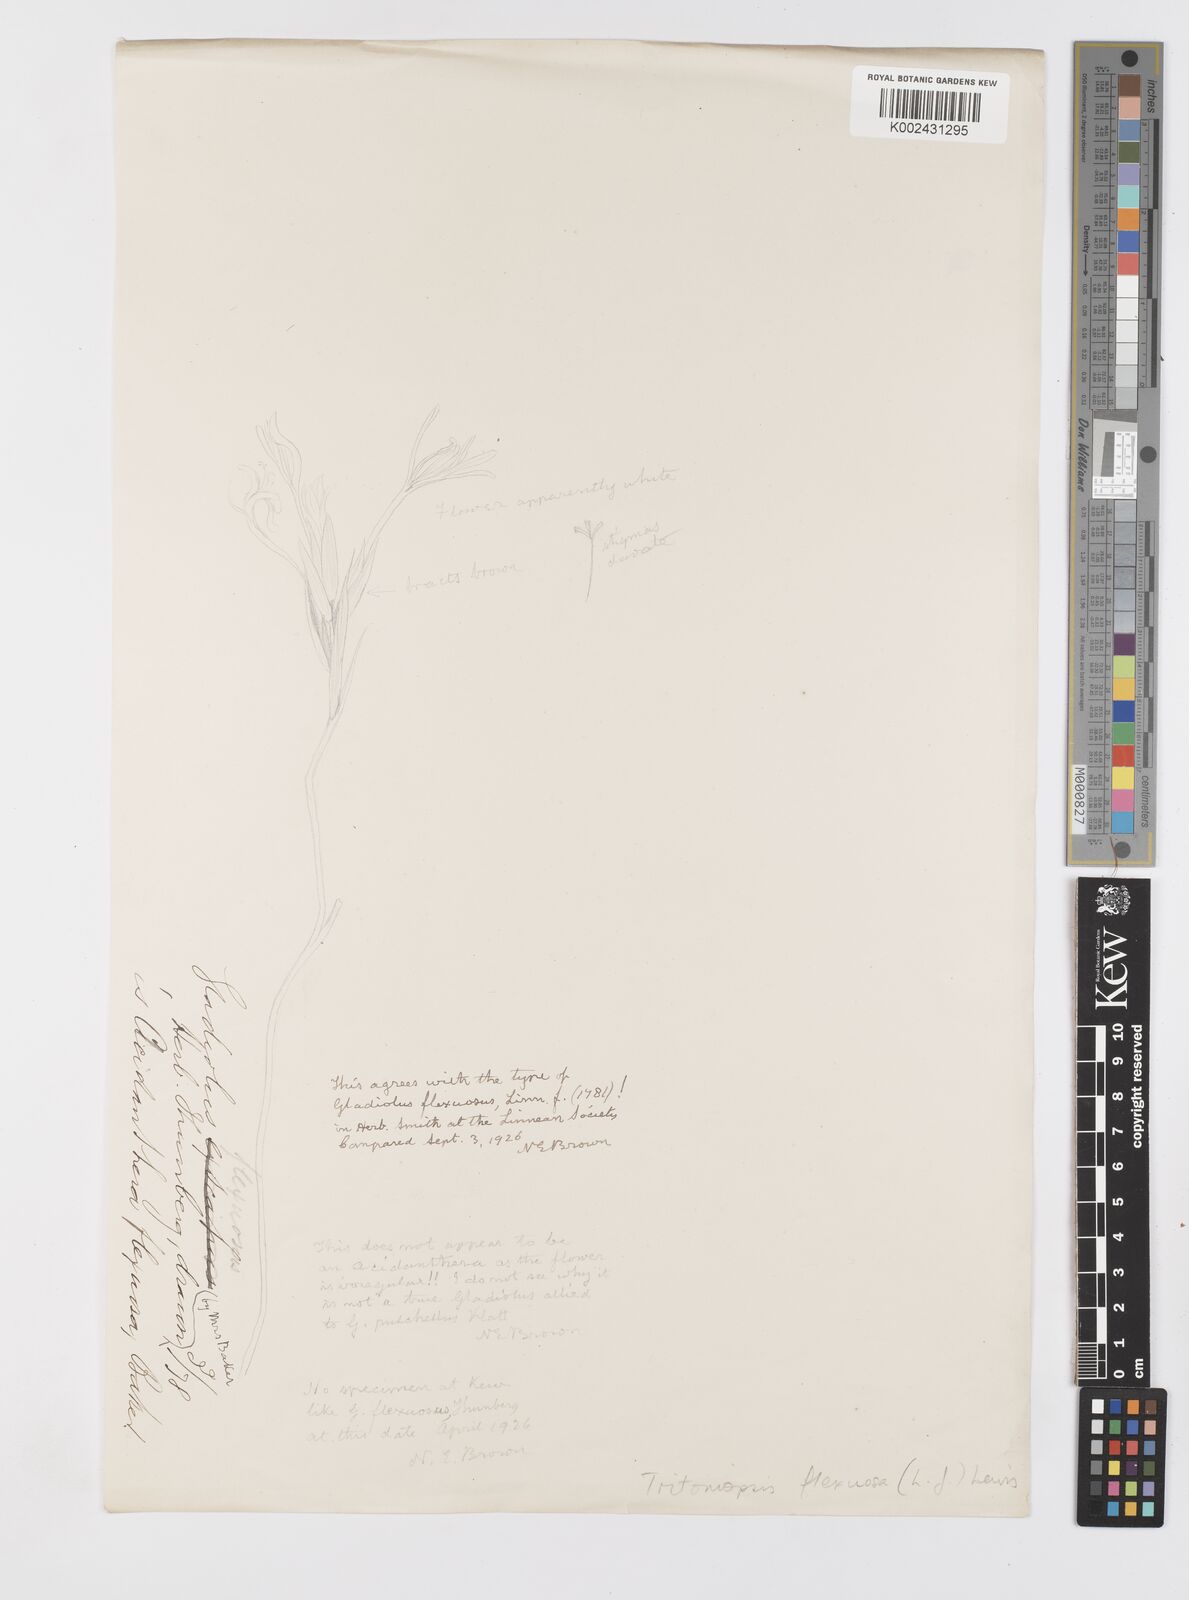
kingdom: Plantae
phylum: Tracheophyta
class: Liliopsida
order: Asparagales
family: Iridaceae
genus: Tritoniopsis
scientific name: Tritoniopsis flexuosa
